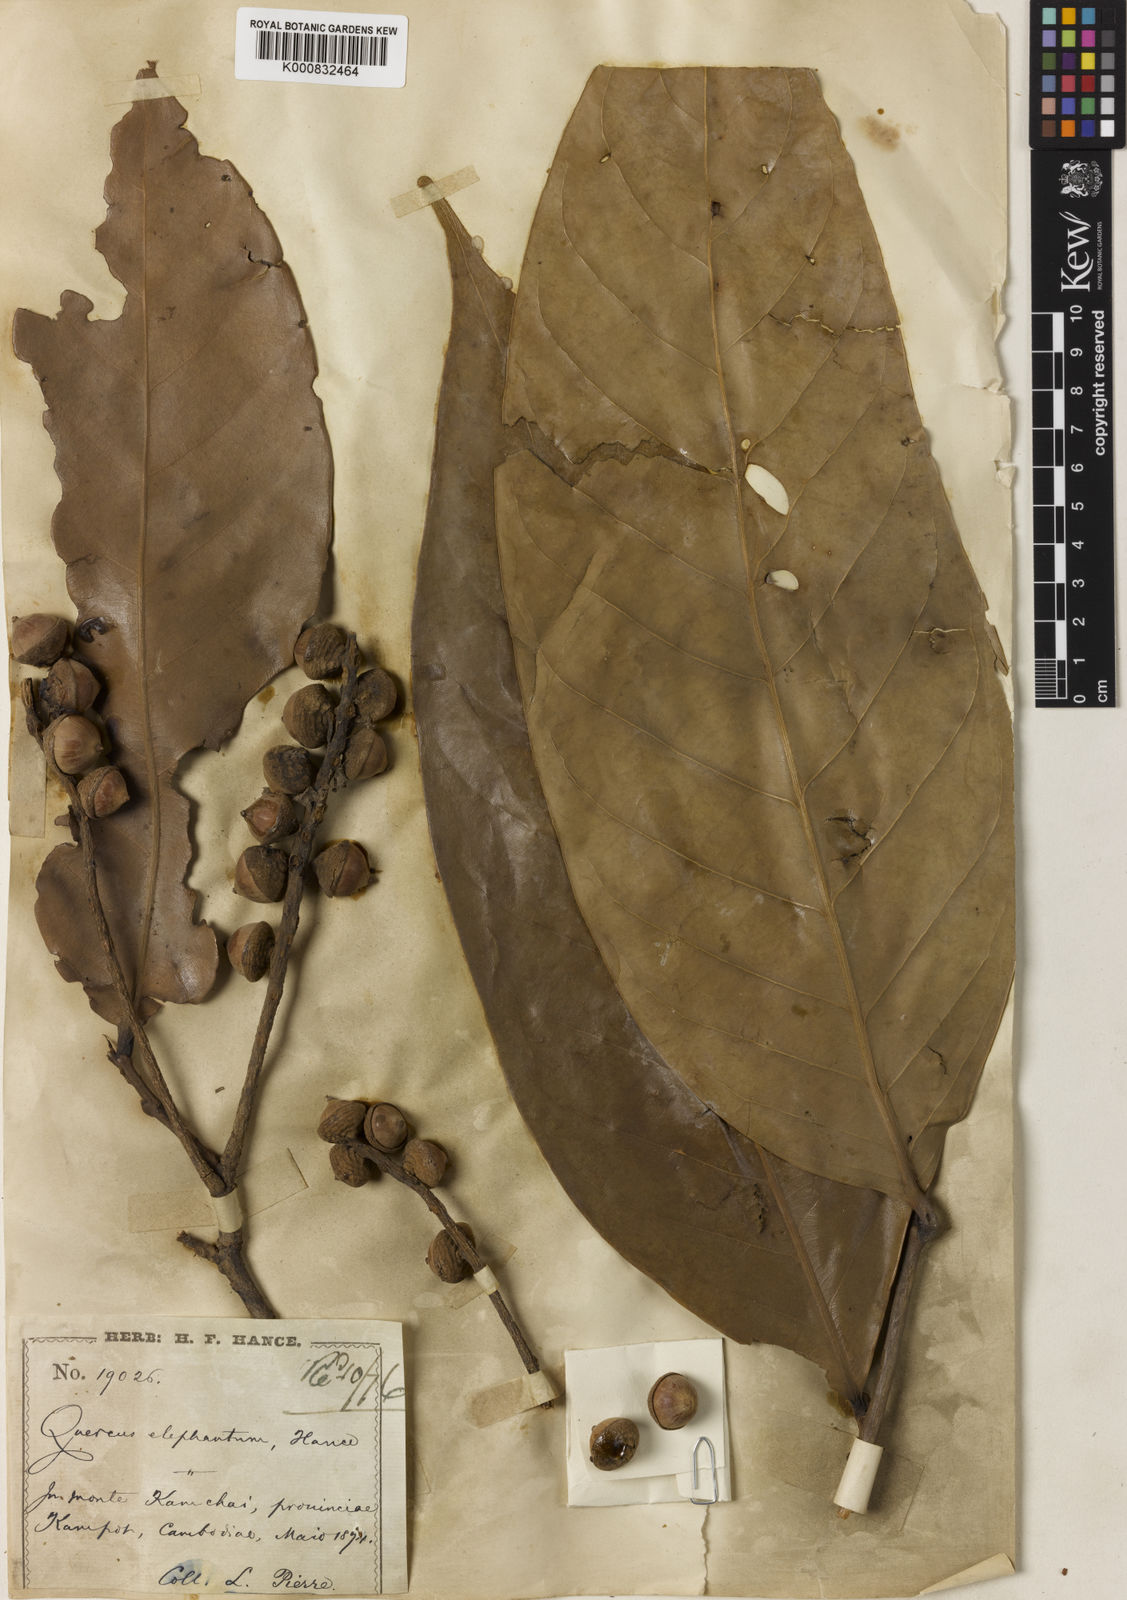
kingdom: Plantae
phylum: Tracheophyta
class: Magnoliopsida
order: Fagales
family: Fagaceae
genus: Lithocarpus
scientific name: Lithocarpus elephantum
